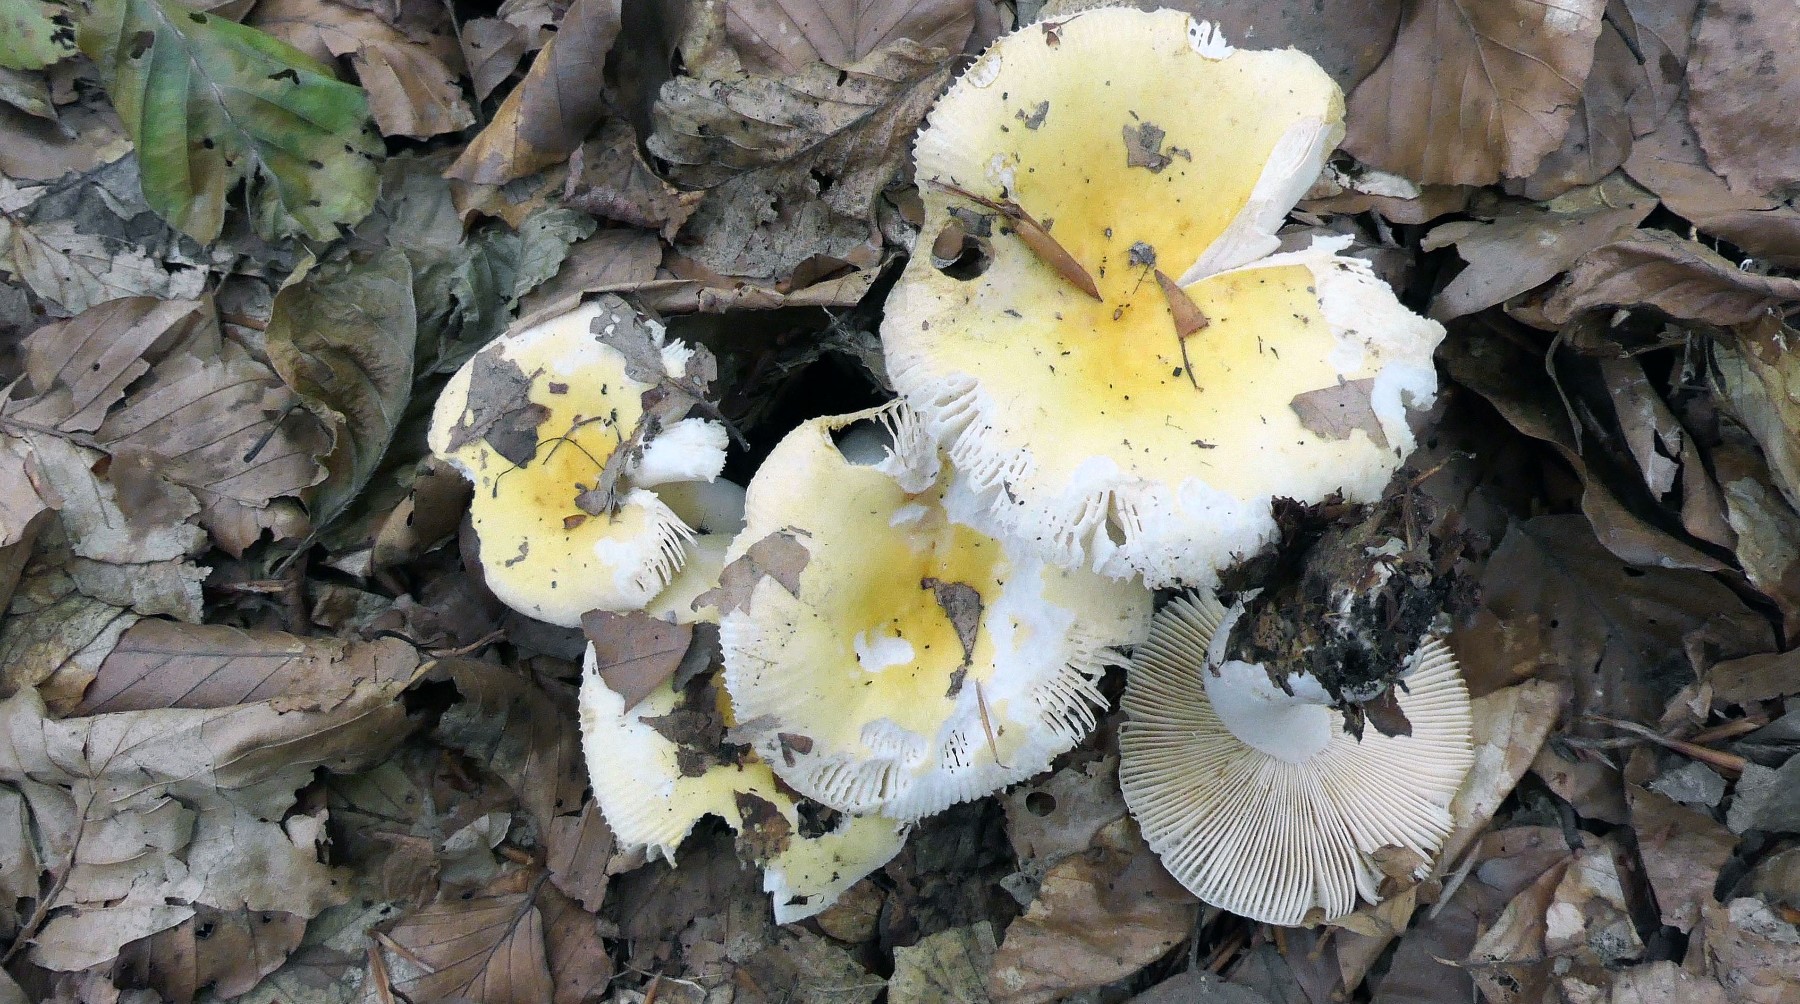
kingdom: Fungi
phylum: Basidiomycota
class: Agaricomycetes
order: Russulales
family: Russulaceae
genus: Russula
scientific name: Russula solaris
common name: sol-skørhat
